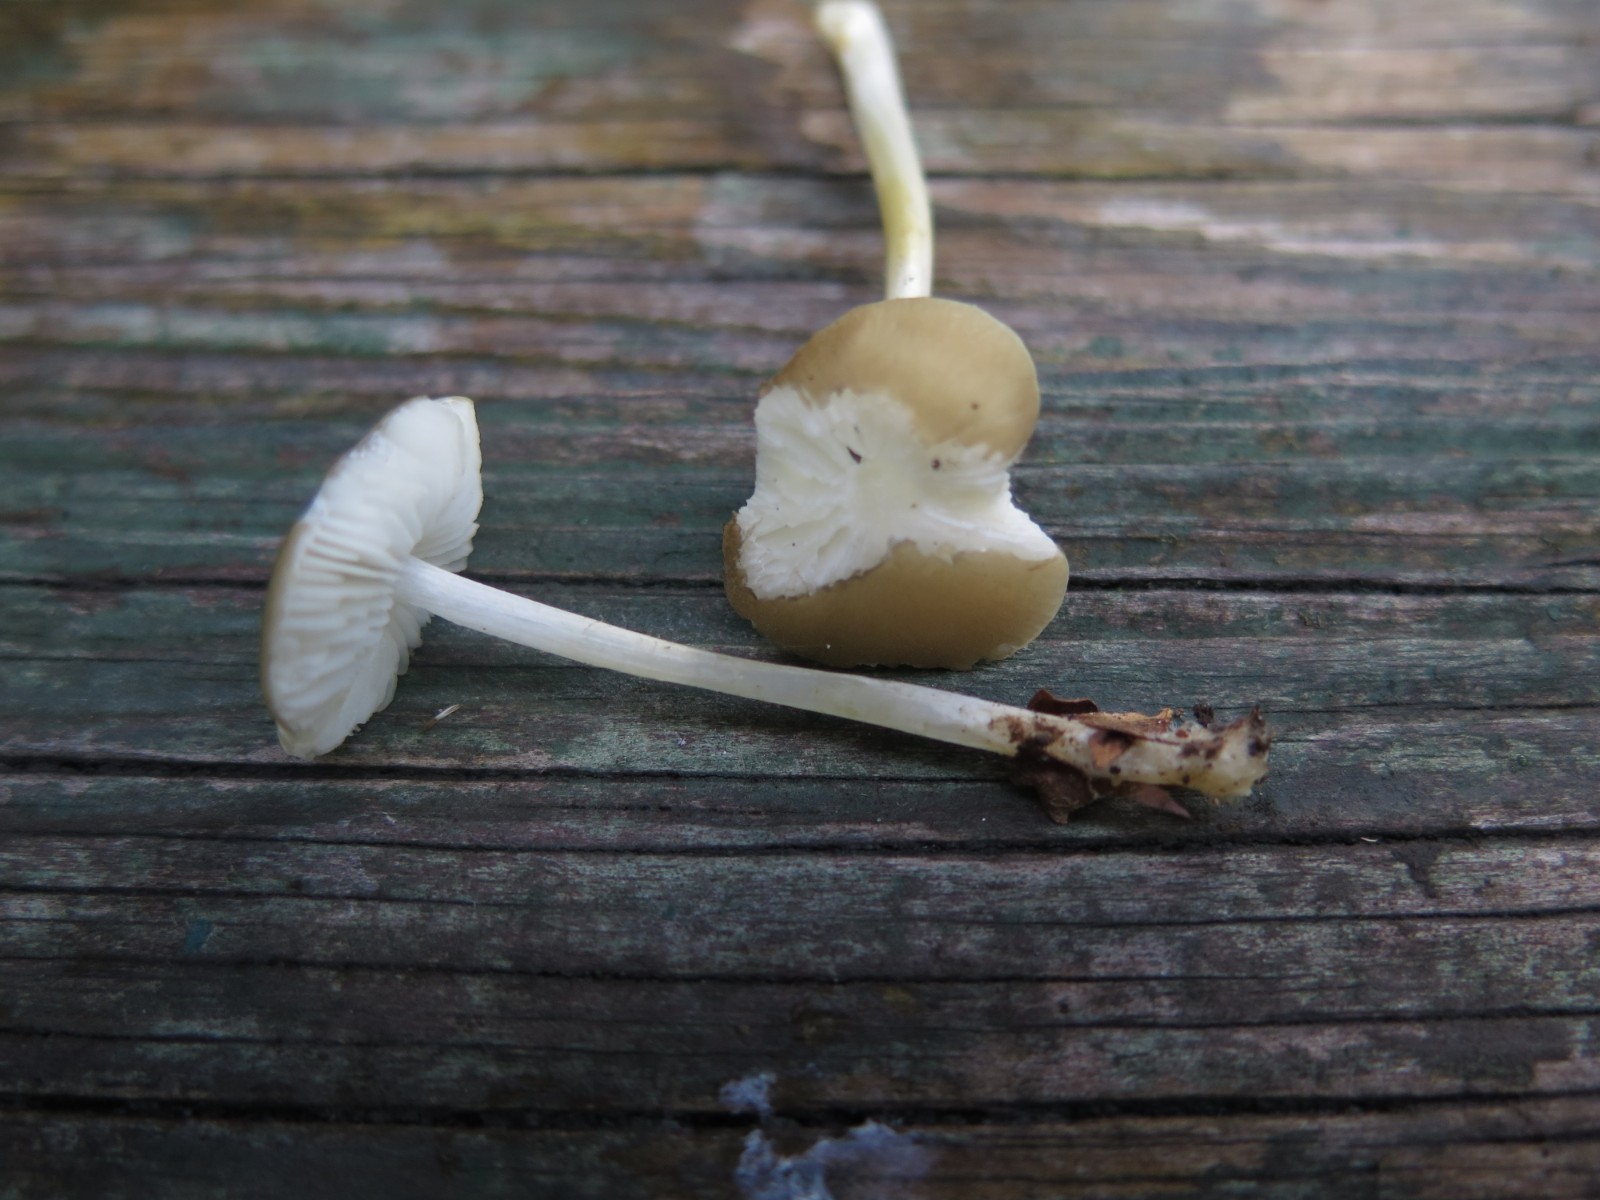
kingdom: Fungi
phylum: Basidiomycota
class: Agaricomycetes
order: Agaricales
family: Porotheleaceae
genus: Hydropodia
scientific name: Hydropodia subalpina
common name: vår-fnugfod
